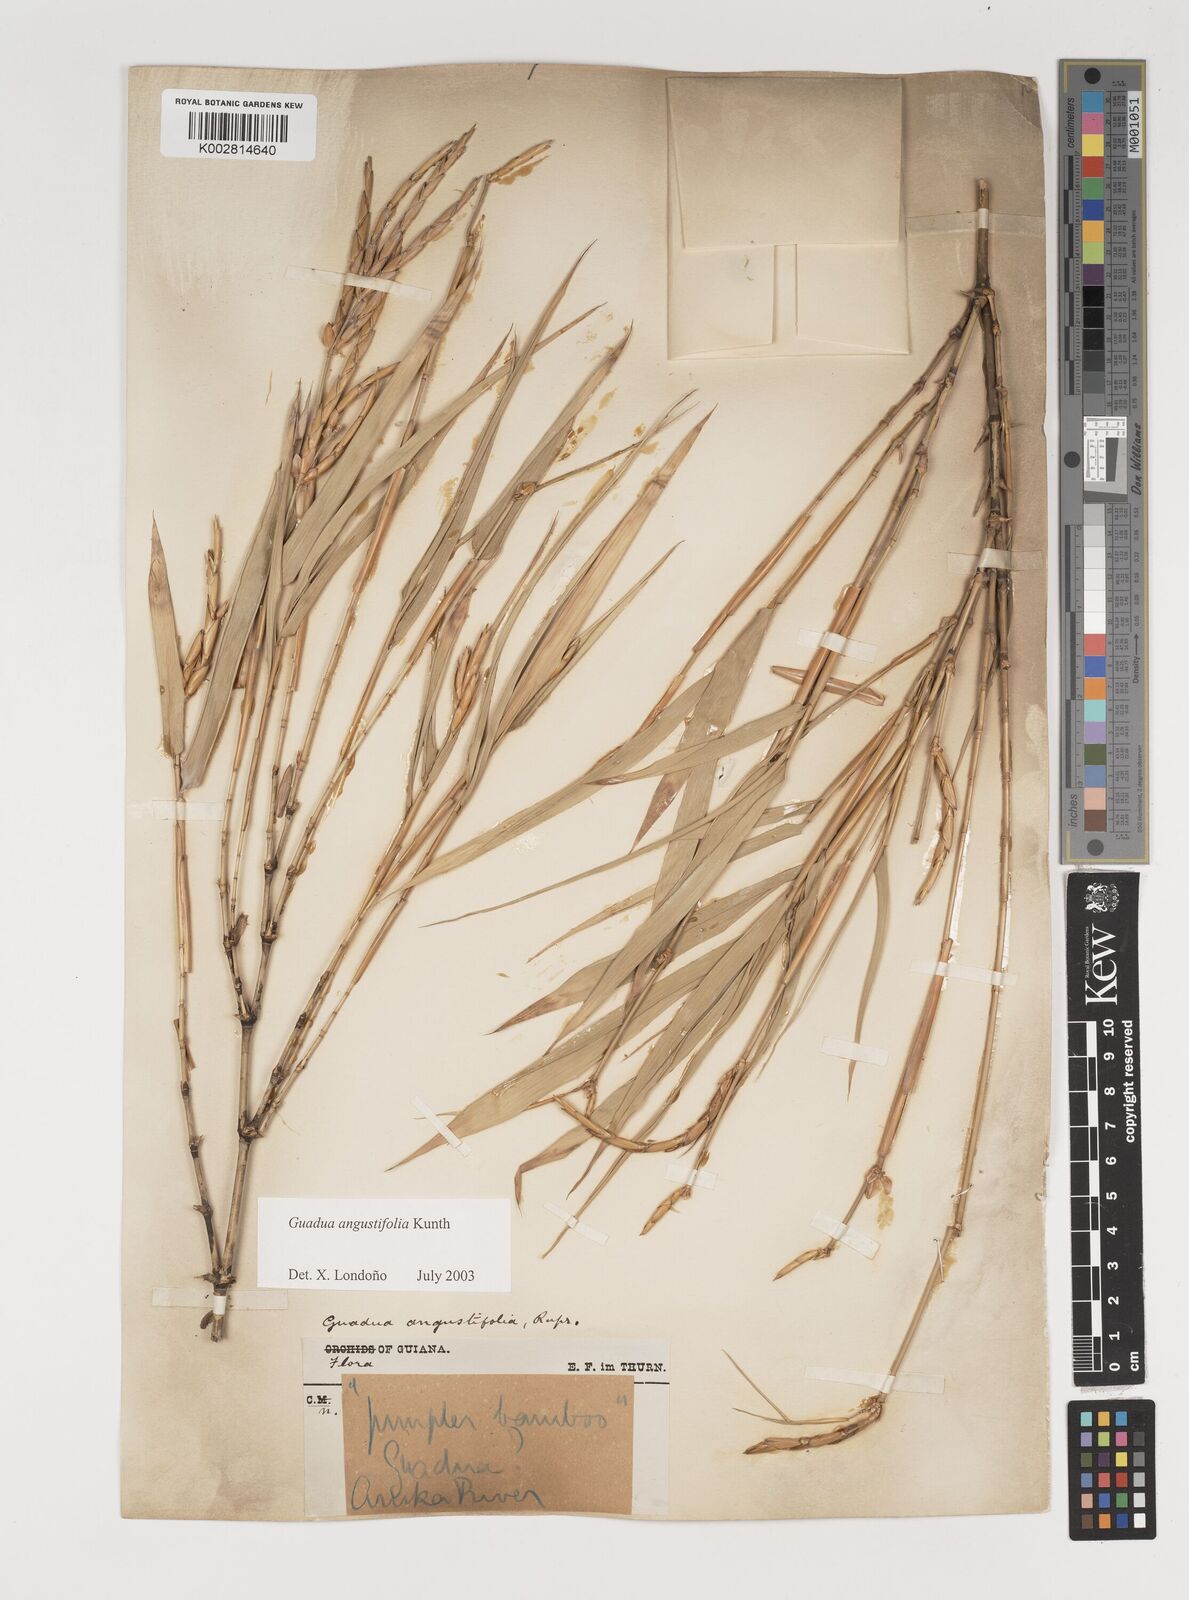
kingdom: Plantae
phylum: Tracheophyta
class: Liliopsida
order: Poales
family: Poaceae
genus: Guadua
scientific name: Guadua angustifolia
